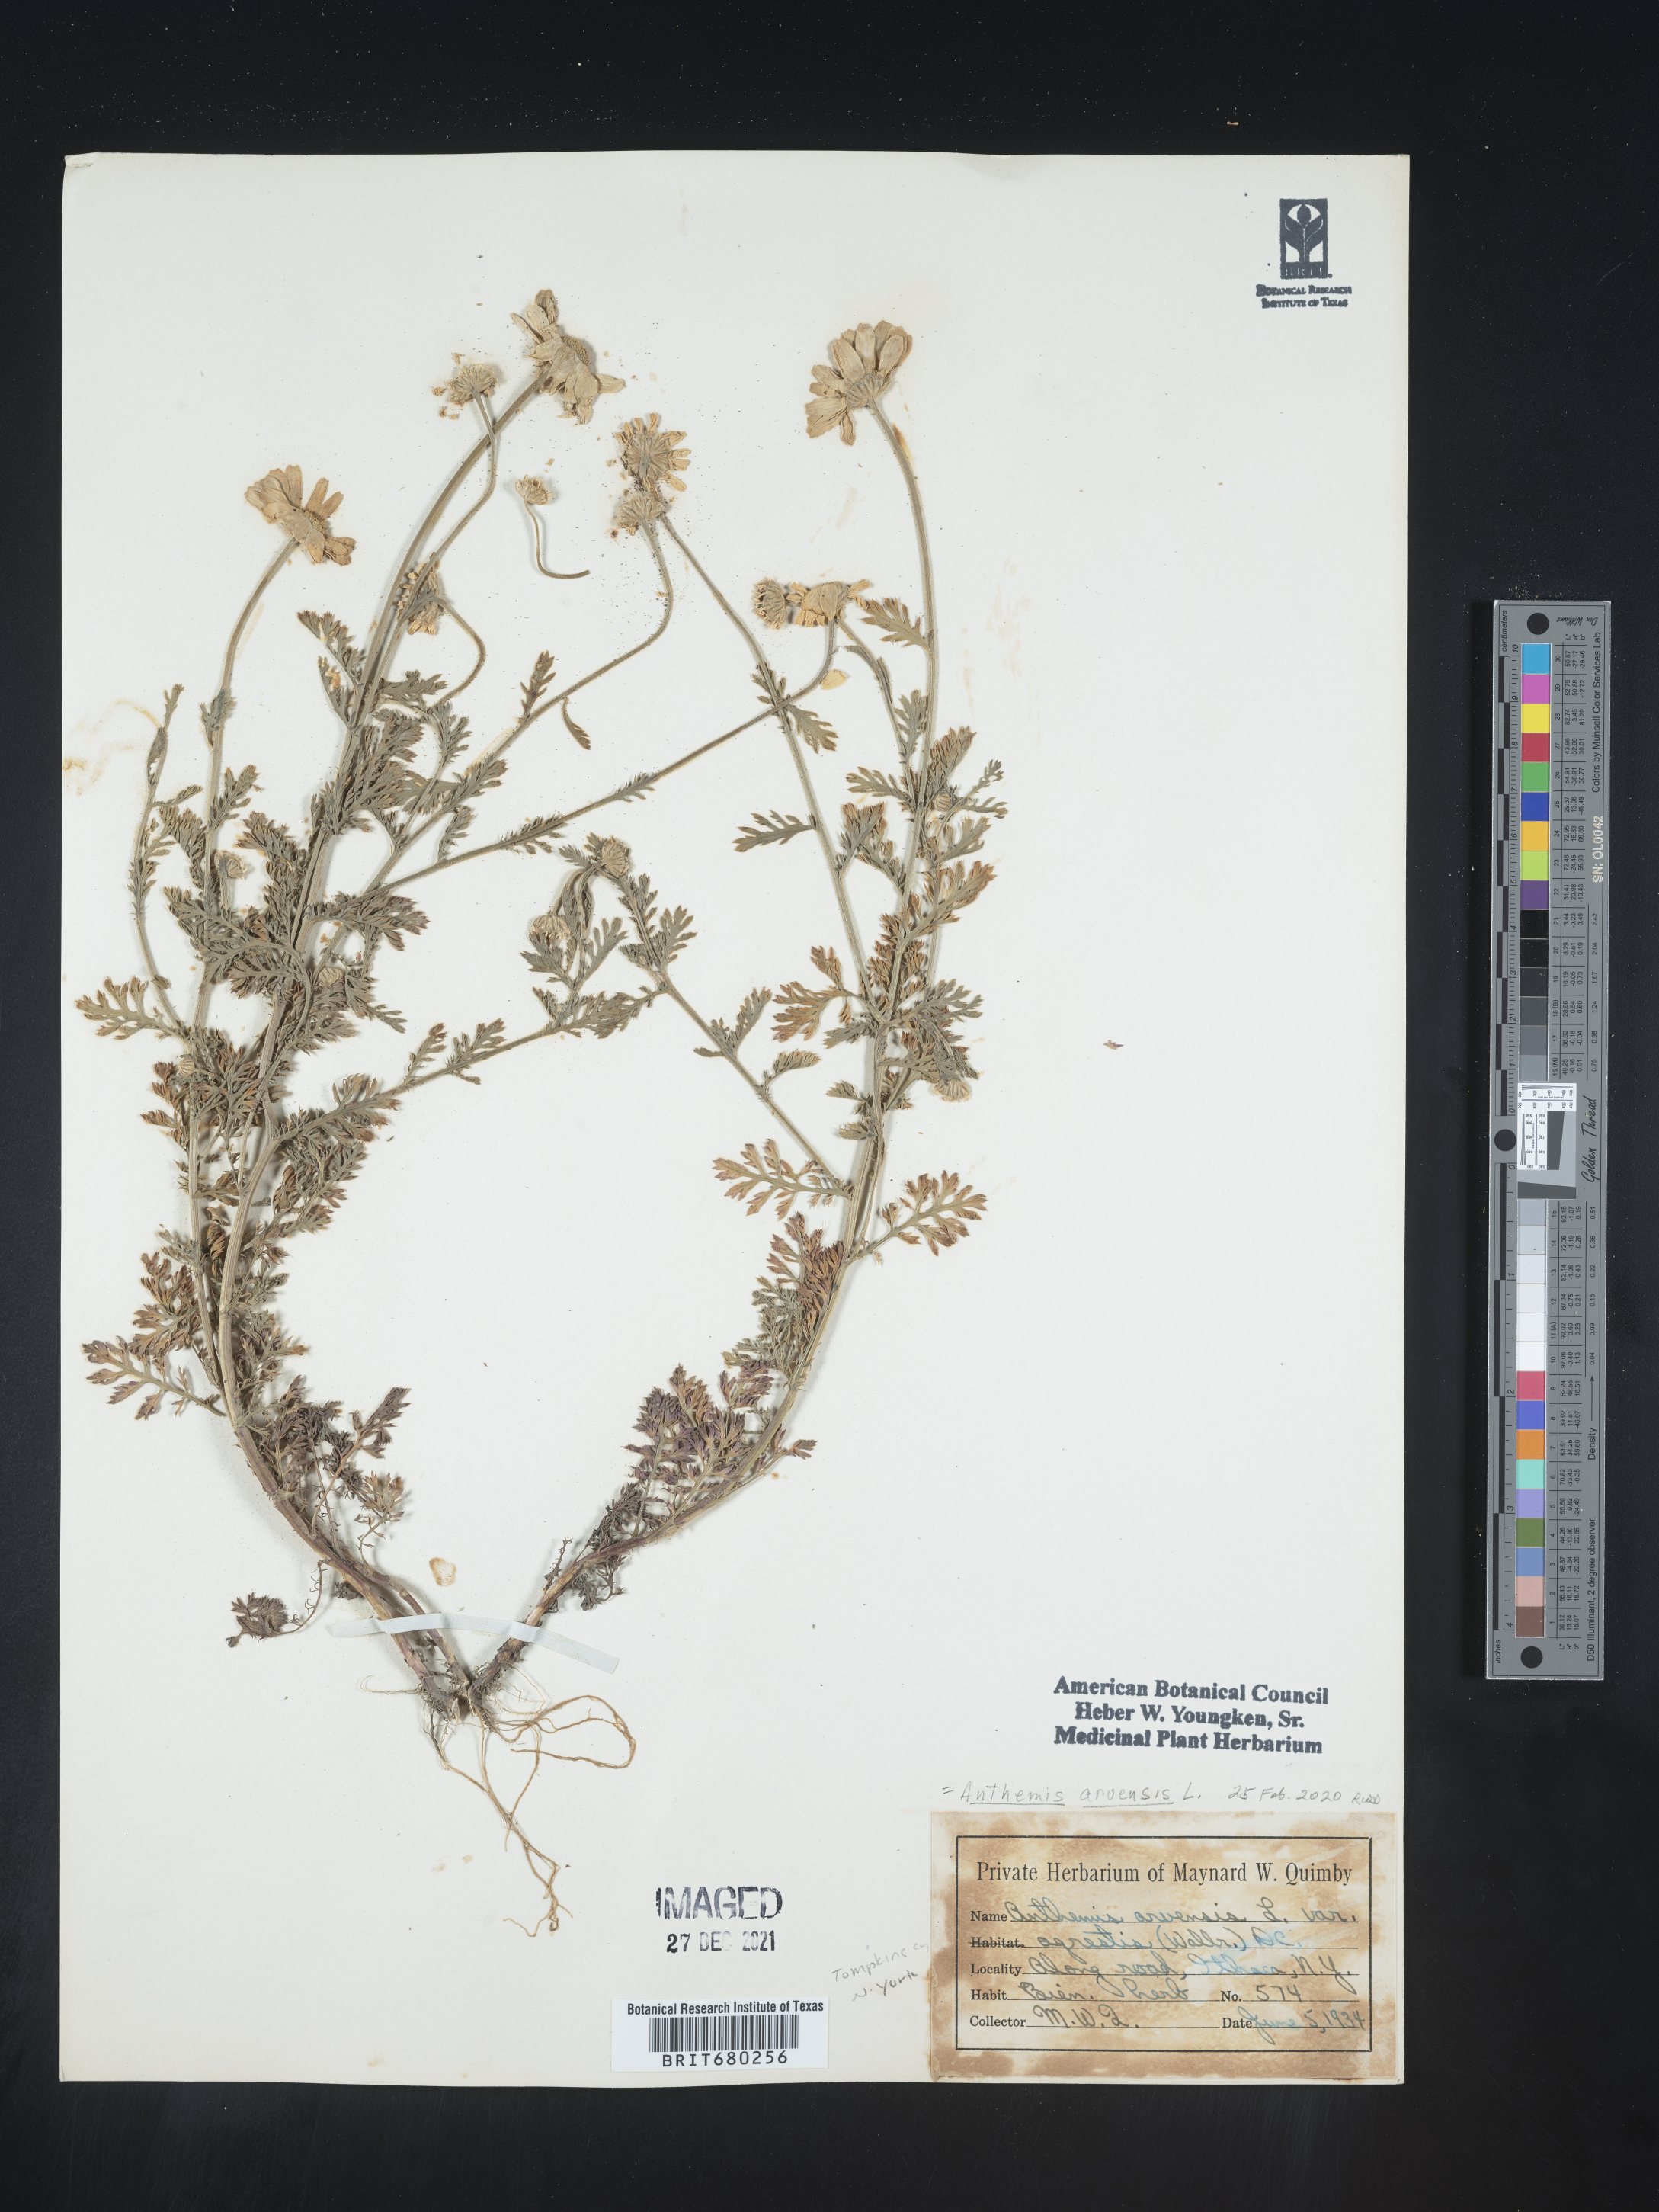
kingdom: Plantae
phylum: Tracheophyta
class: Magnoliopsida
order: Asterales
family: Asteraceae
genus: Anthemis
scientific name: Anthemis arvensis
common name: Corn chamomile
